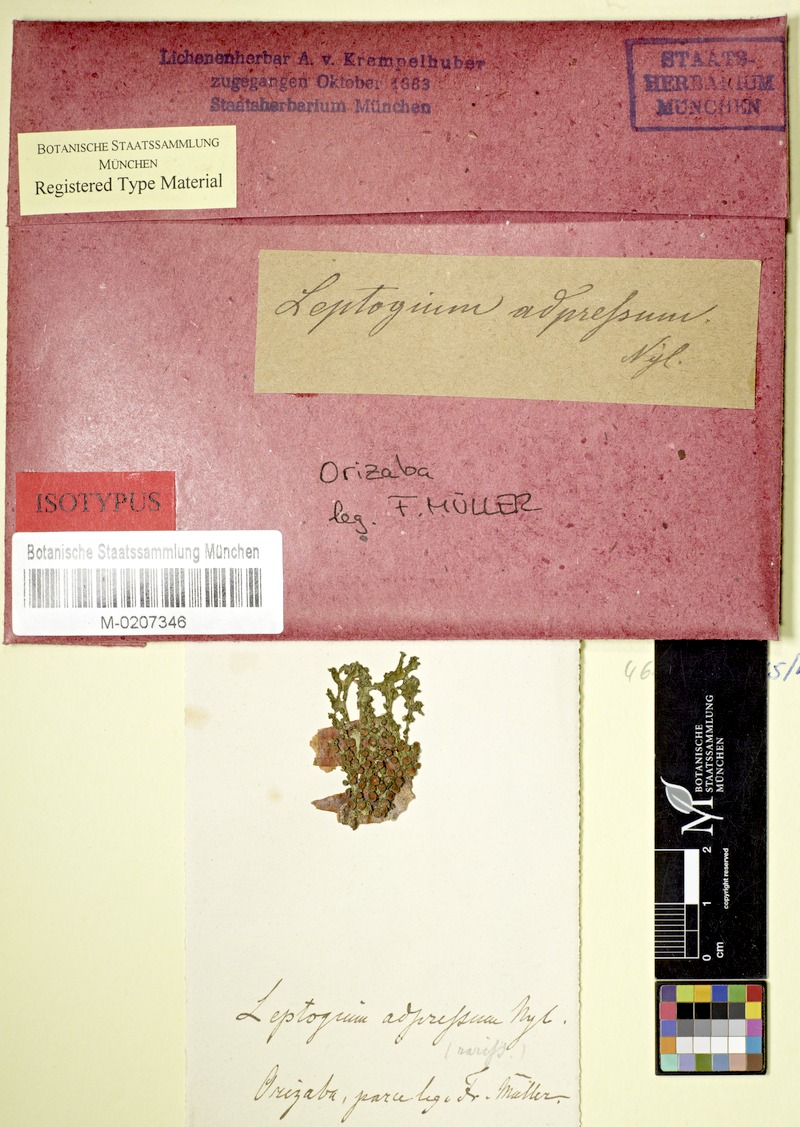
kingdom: Fungi
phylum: Ascomycota
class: Lecanoromycetes
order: Peltigerales
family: Collemataceae
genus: Leptogium
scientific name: Leptogium adpressum
